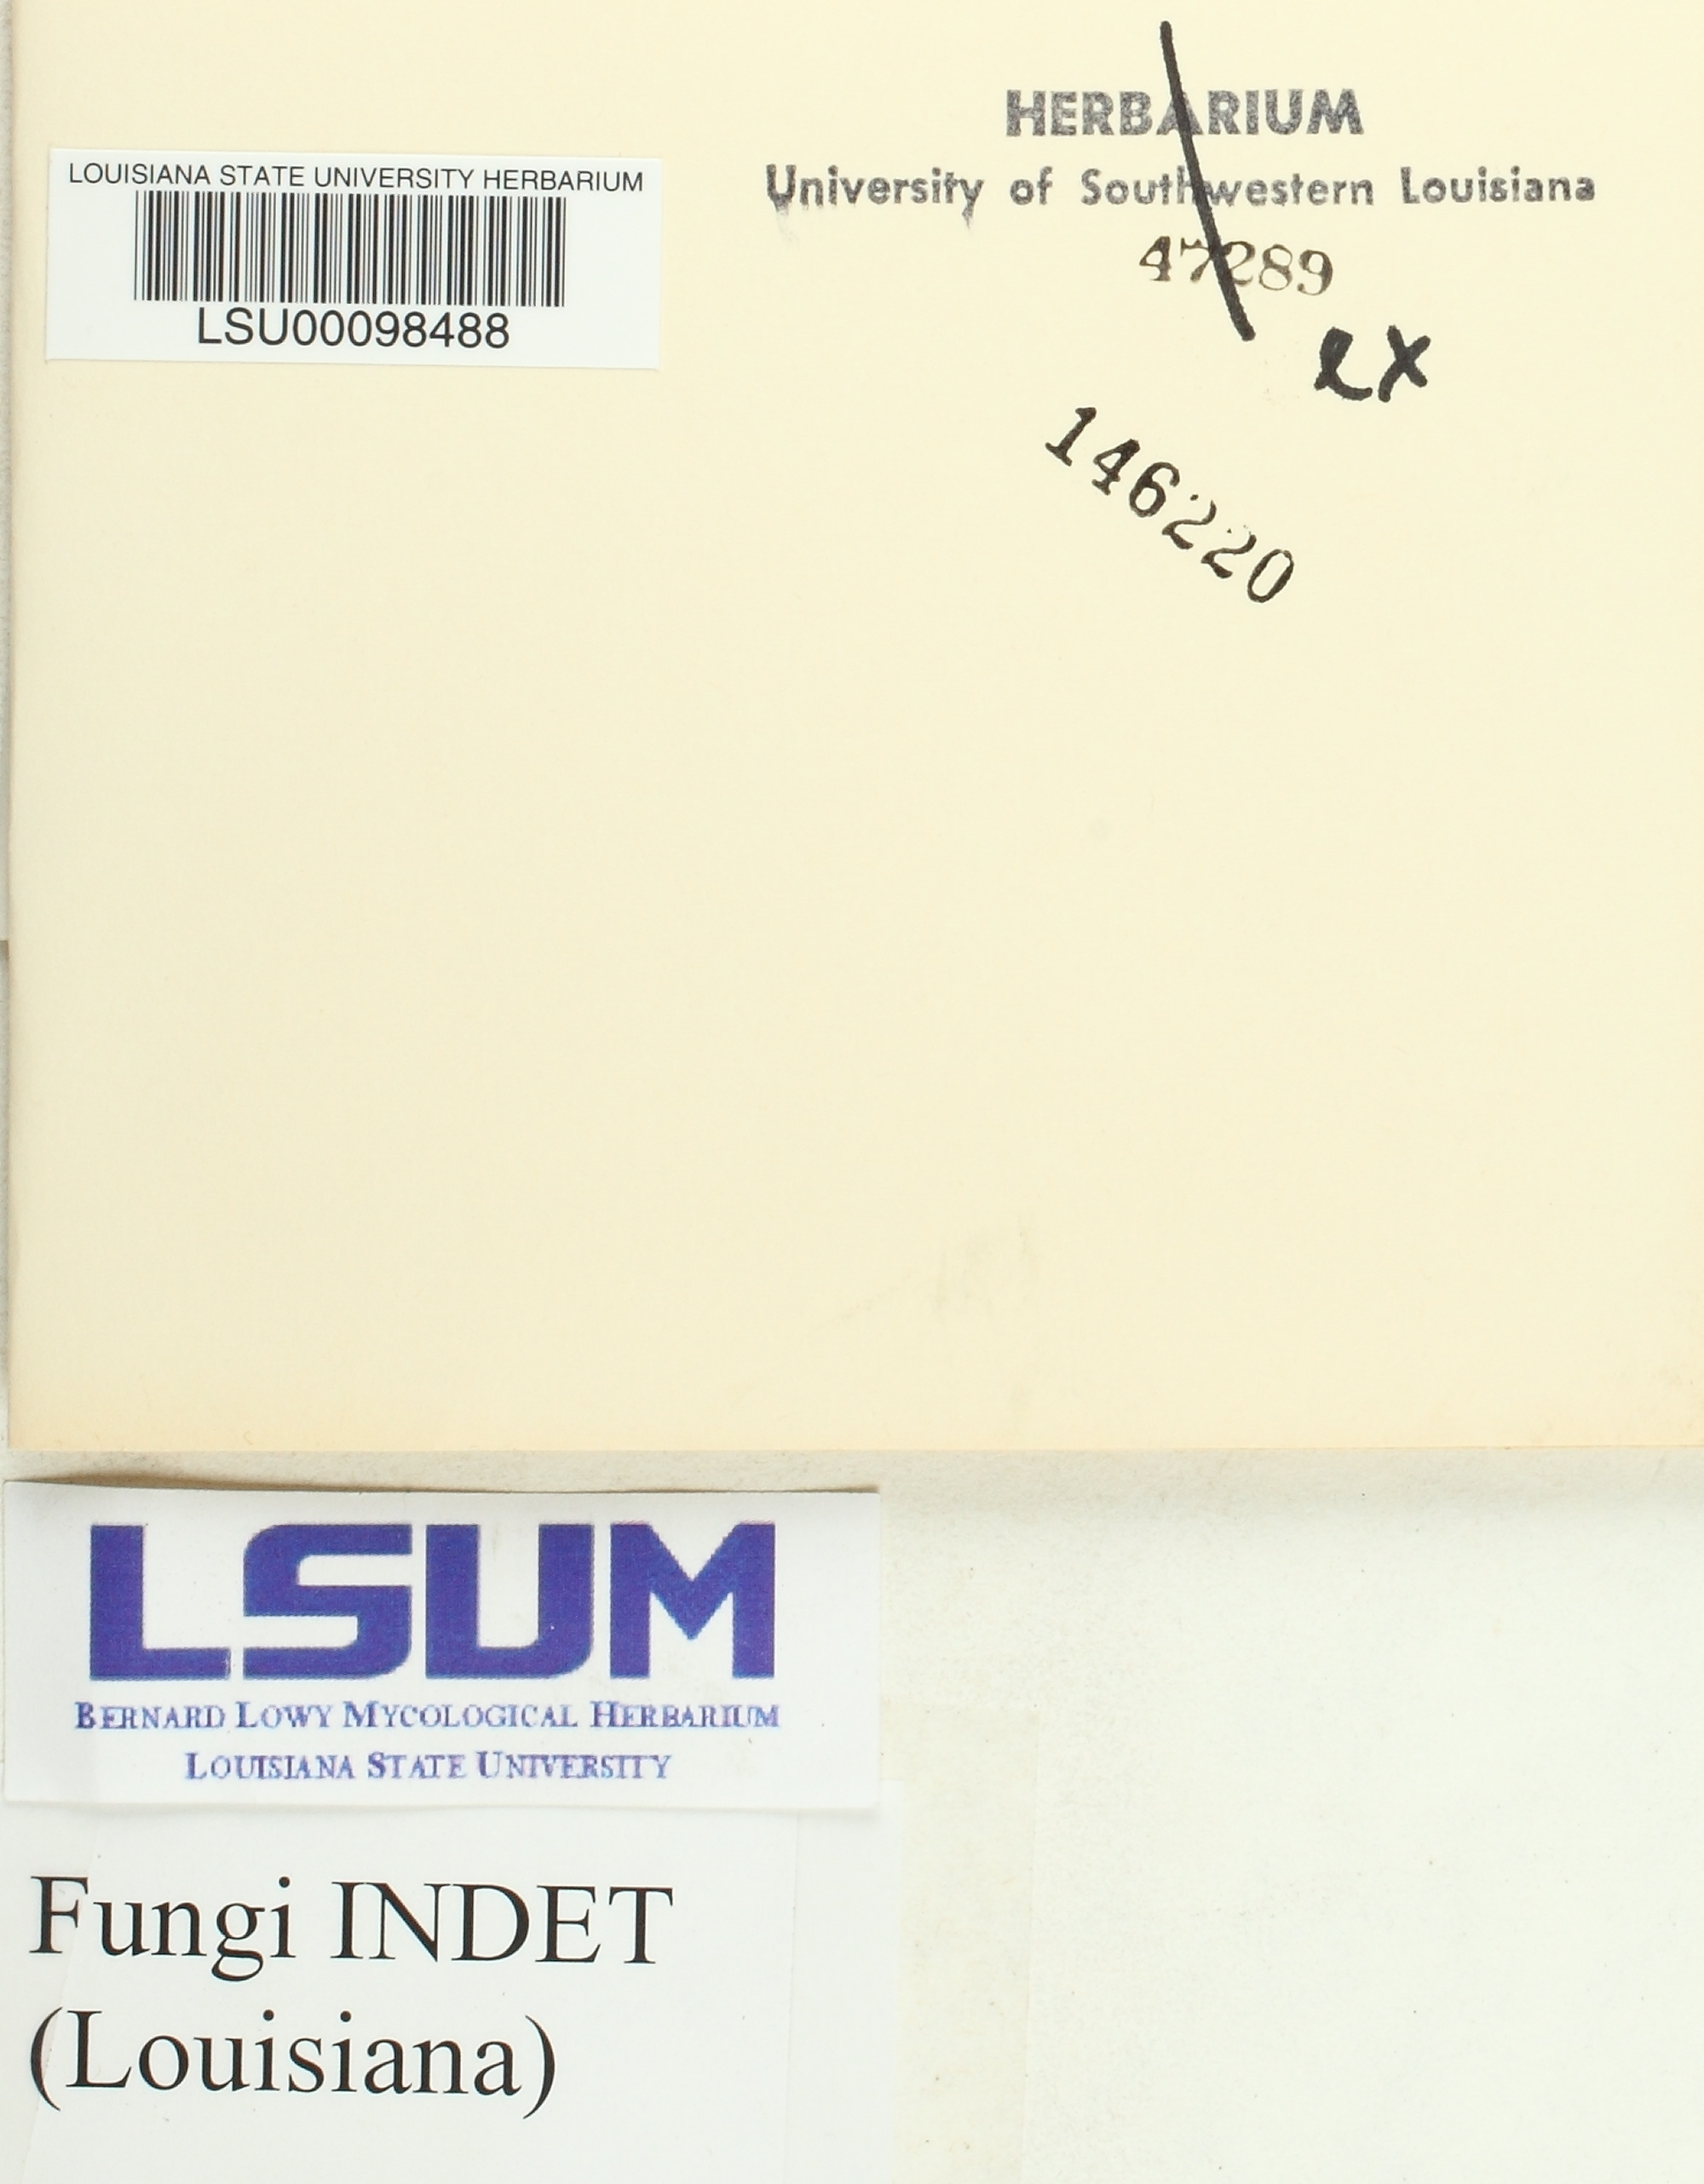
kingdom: Fungi
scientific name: Fungi
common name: Fungi
